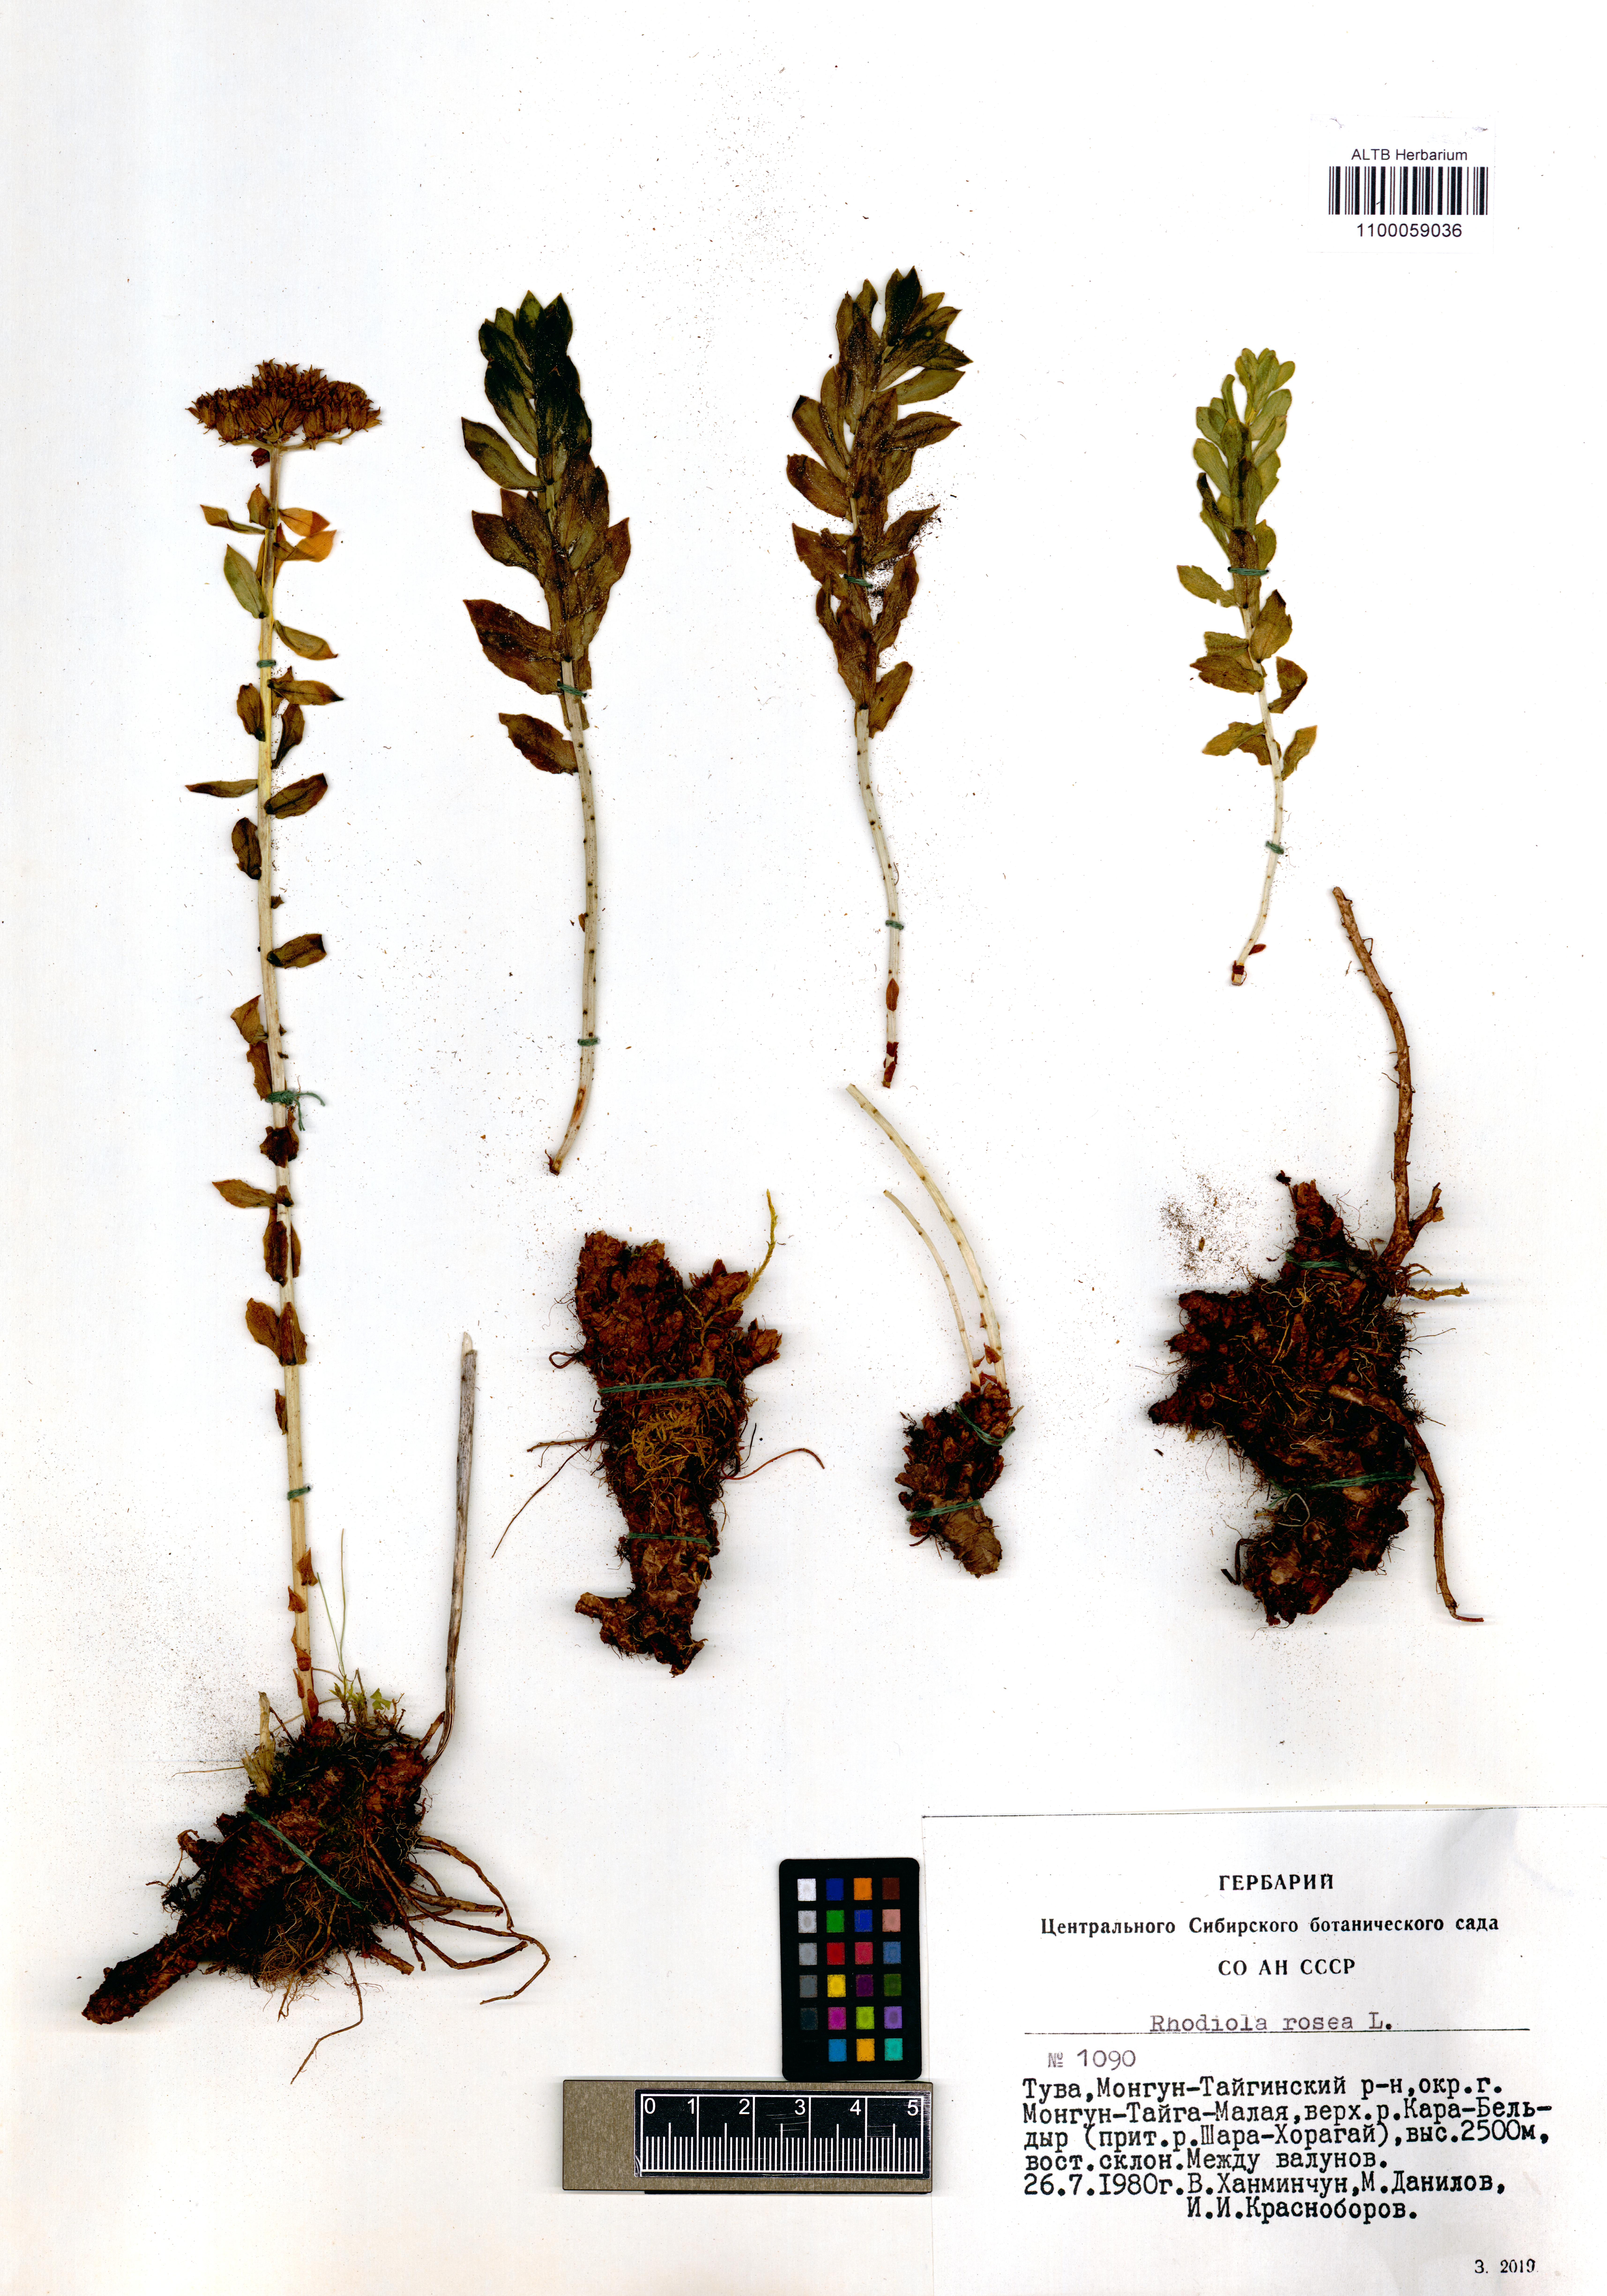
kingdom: Plantae
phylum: Tracheophyta
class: Magnoliopsida
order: Saxifragales
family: Crassulaceae
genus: Rhodiola
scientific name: Rhodiola rosea
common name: Roseroot
